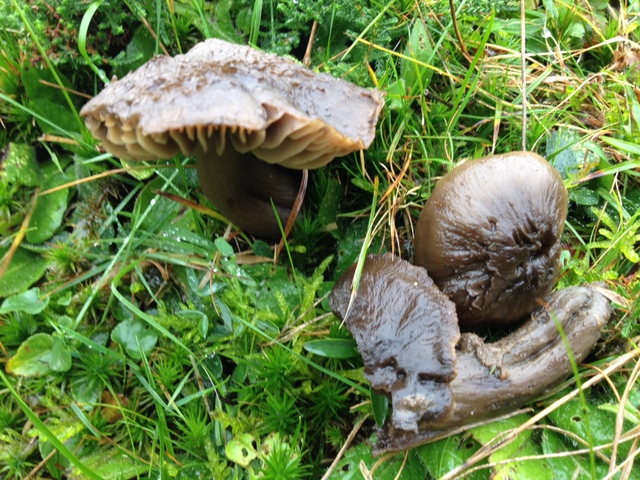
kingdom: Fungi
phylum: Basidiomycota
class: Agaricomycetes
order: Agaricales
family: Hygrophoraceae
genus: Neohygrocybe
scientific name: Neohygrocybe ovina
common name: rødmende vokshat
